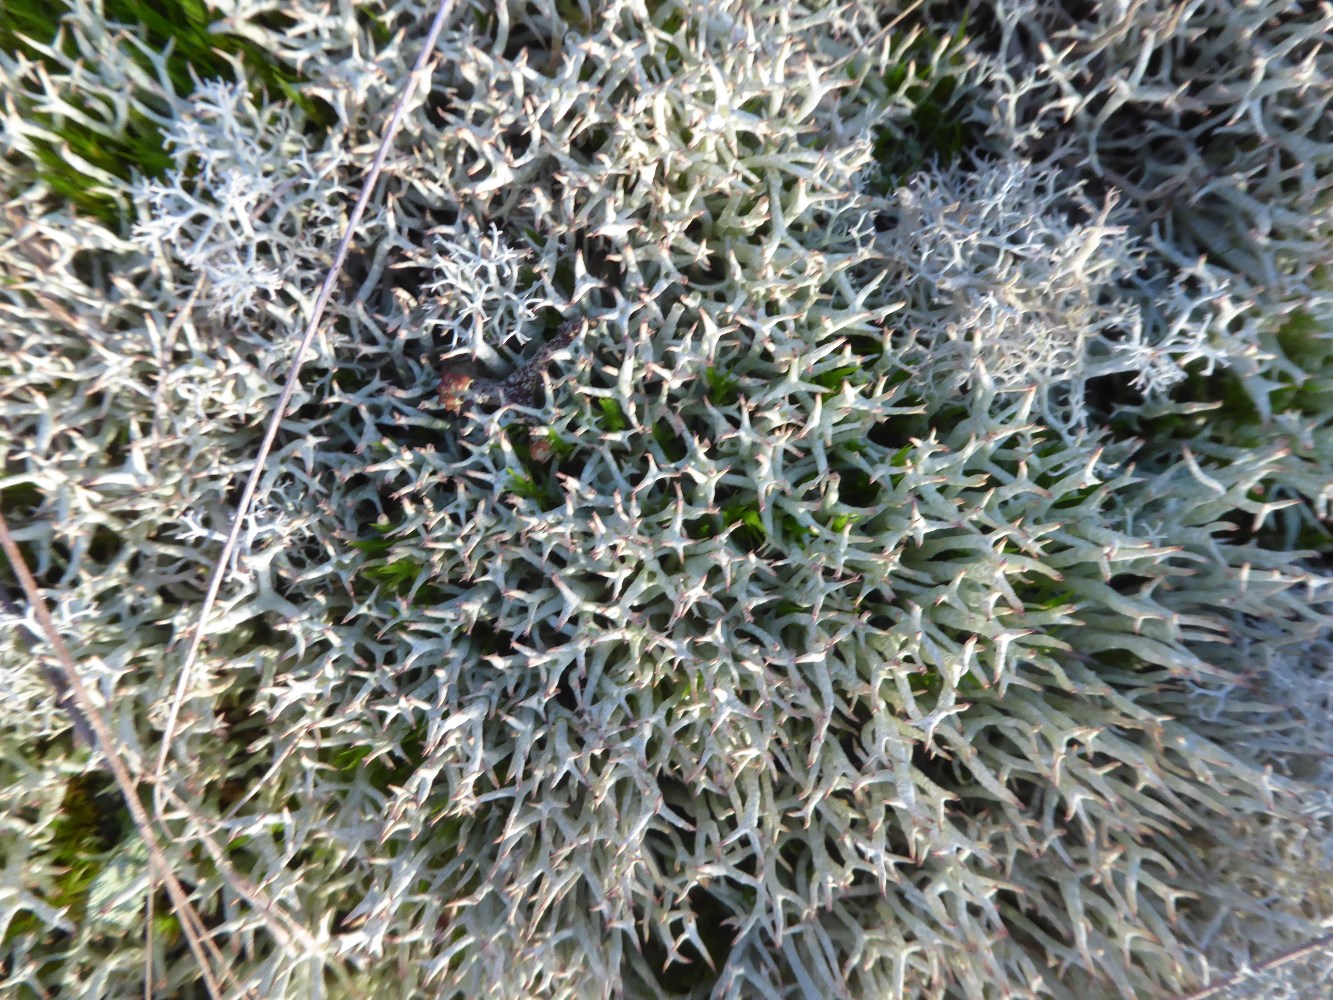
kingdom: Fungi
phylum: Ascomycota
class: Lecanoromycetes
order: Lecanorales
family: Cladoniaceae
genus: Cladonia
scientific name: Cladonia uncialis
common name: pigget bægerlav
